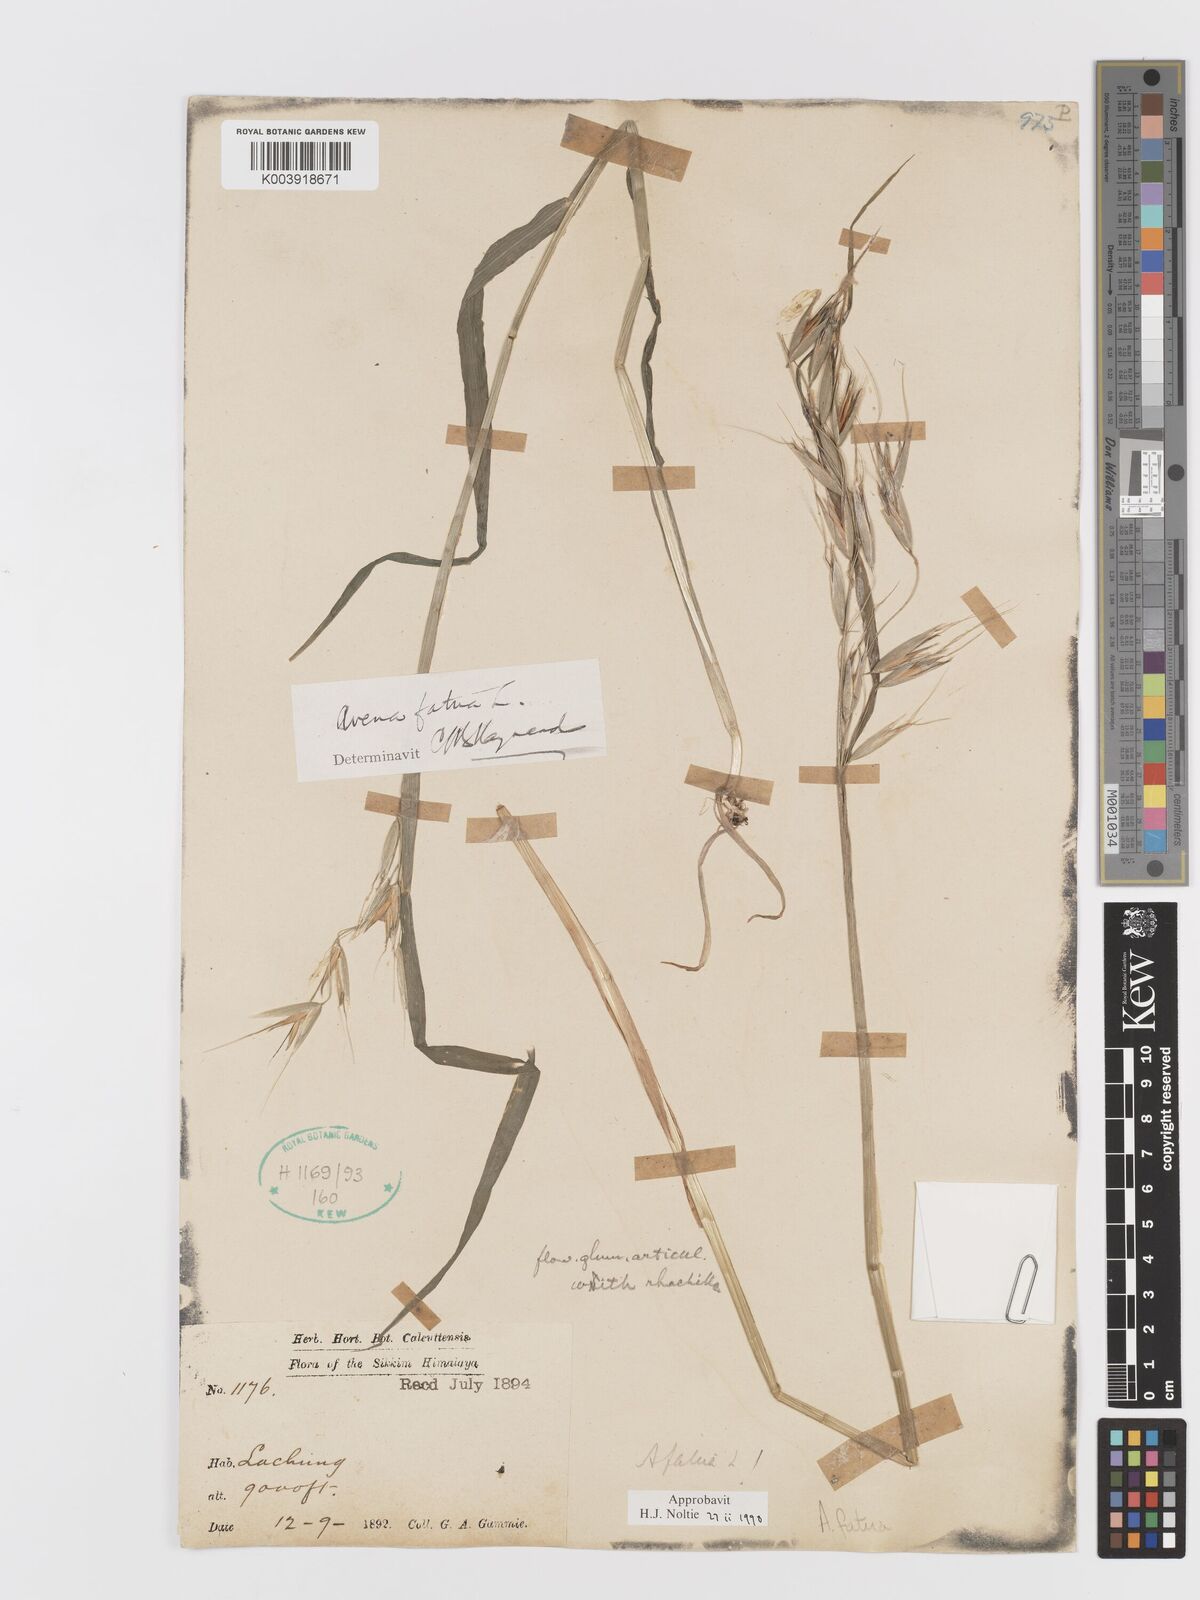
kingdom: Plantae
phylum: Tracheophyta
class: Liliopsida
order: Poales
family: Poaceae
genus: Avena
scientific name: Avena fatua
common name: Wild oat
